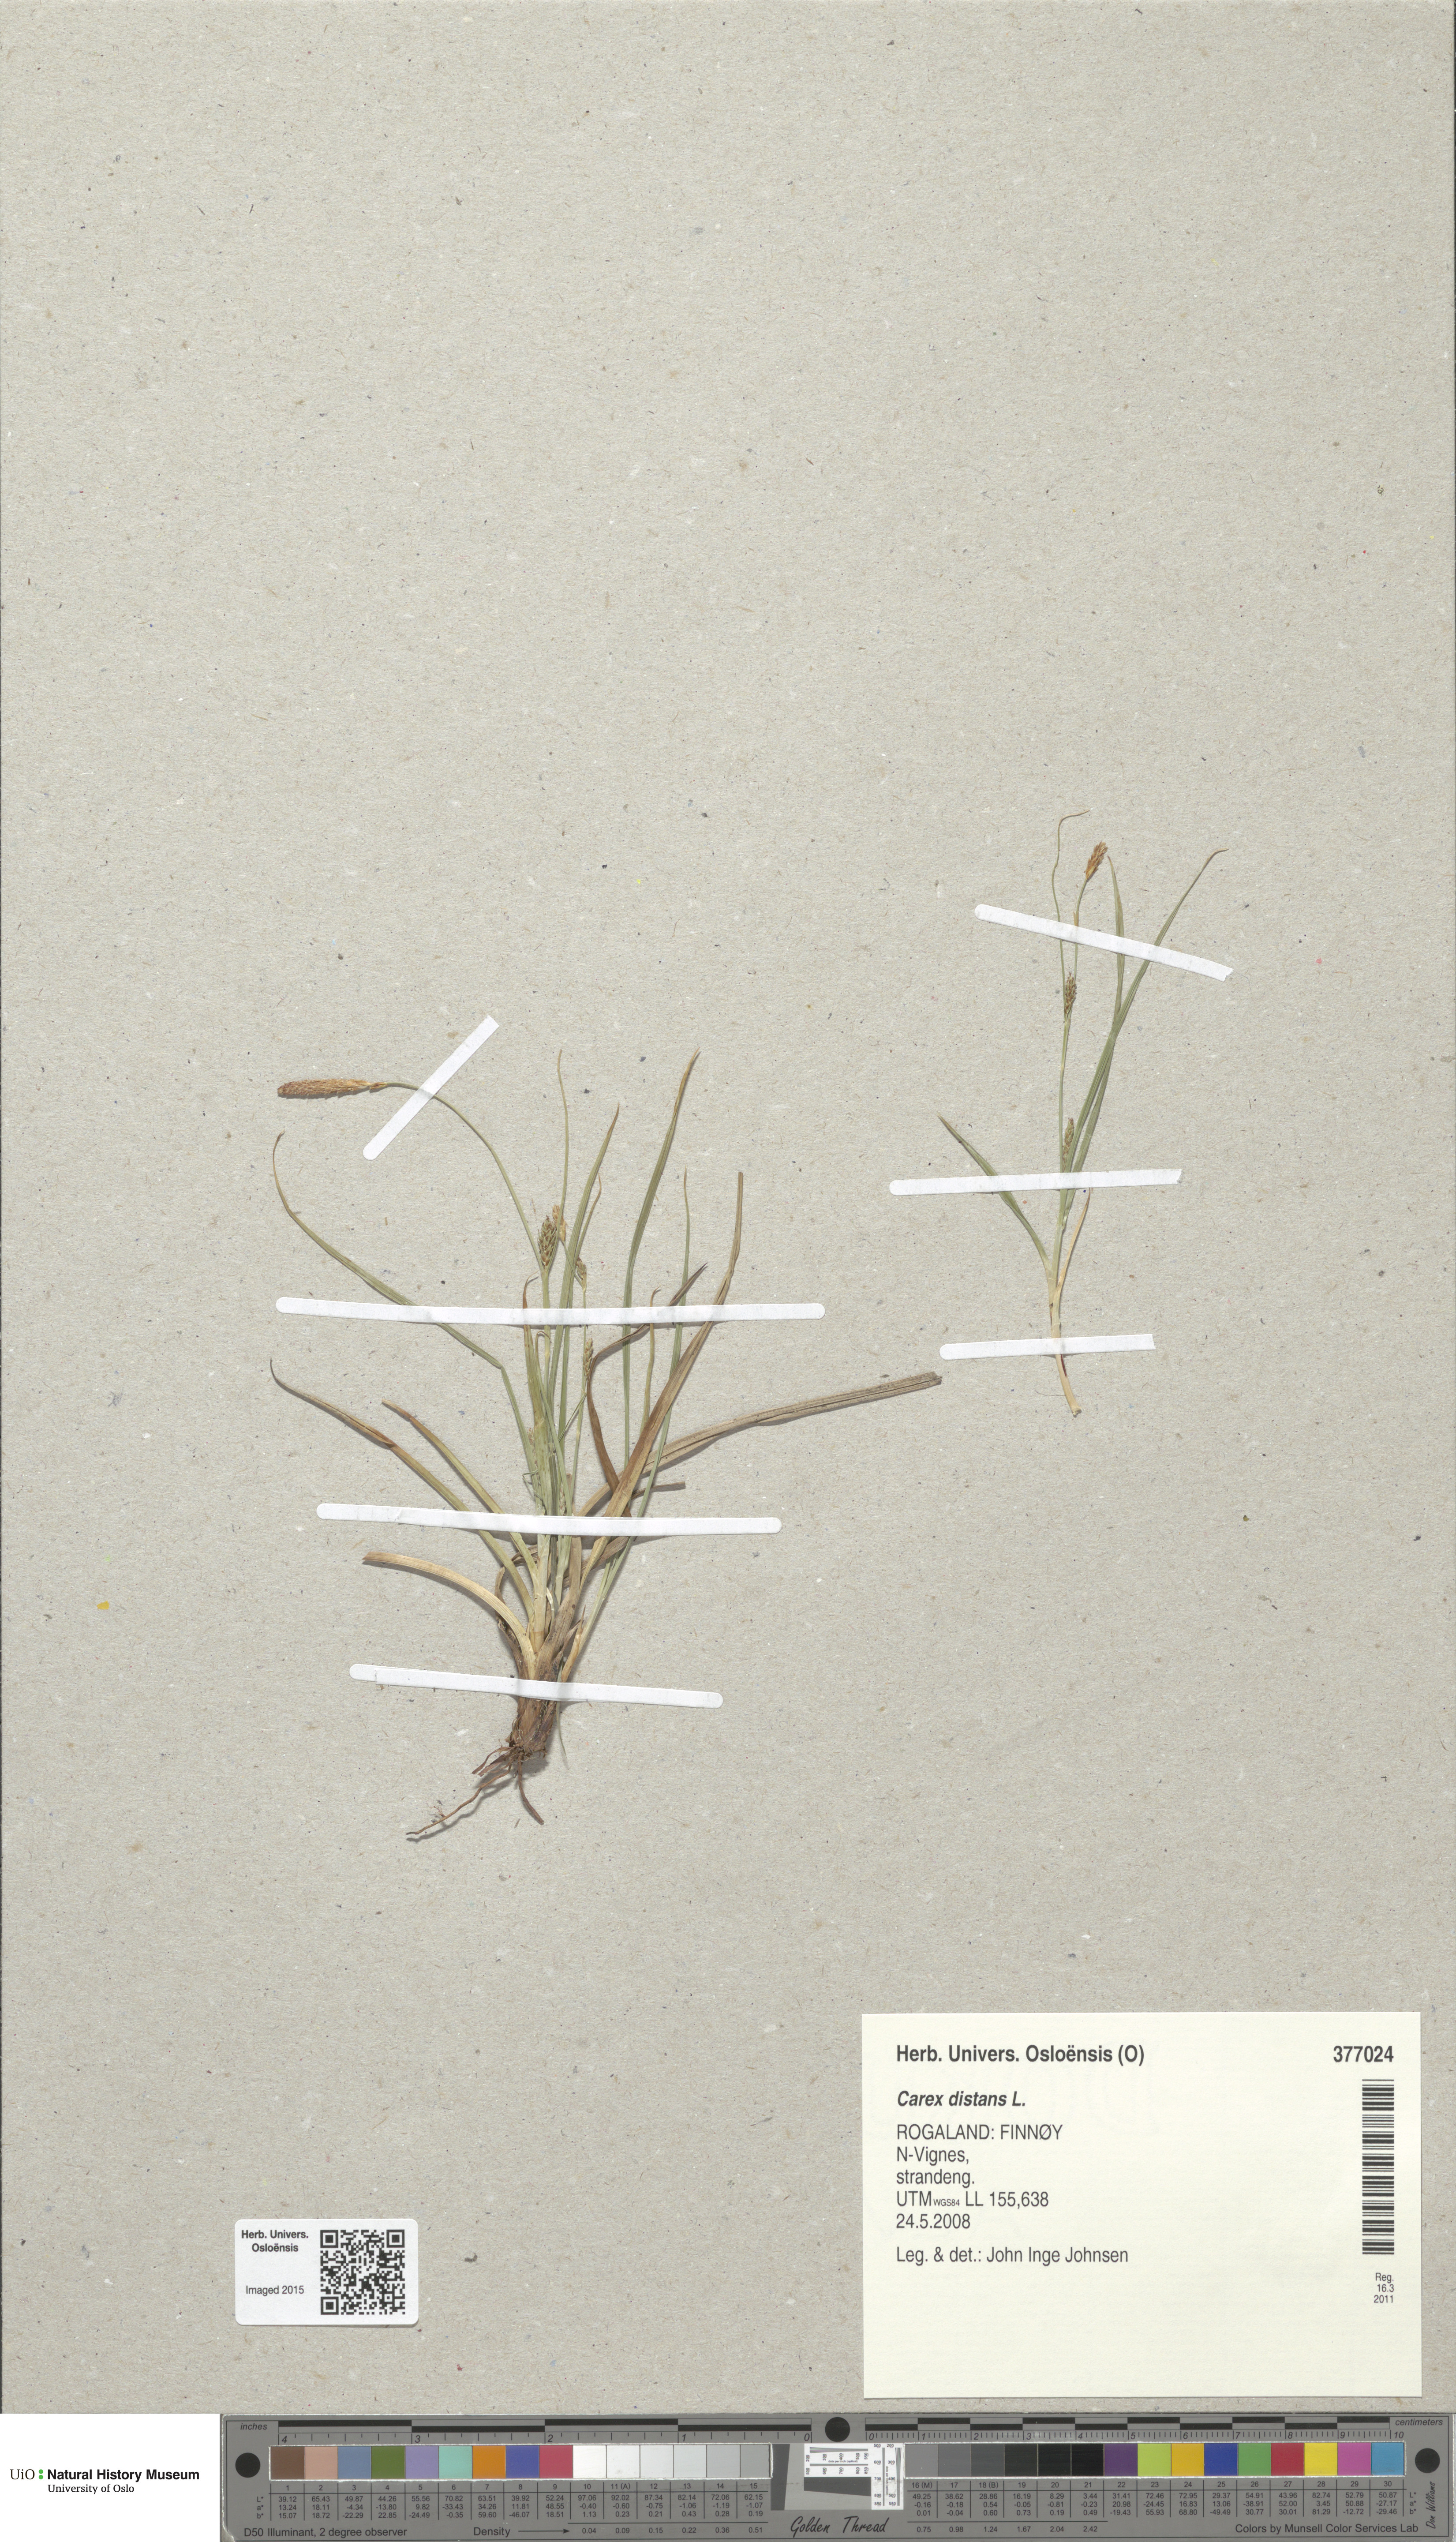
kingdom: Plantae
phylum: Tracheophyta
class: Liliopsida
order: Poales
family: Cyperaceae
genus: Carex
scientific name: Carex distans
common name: Distant sedge
